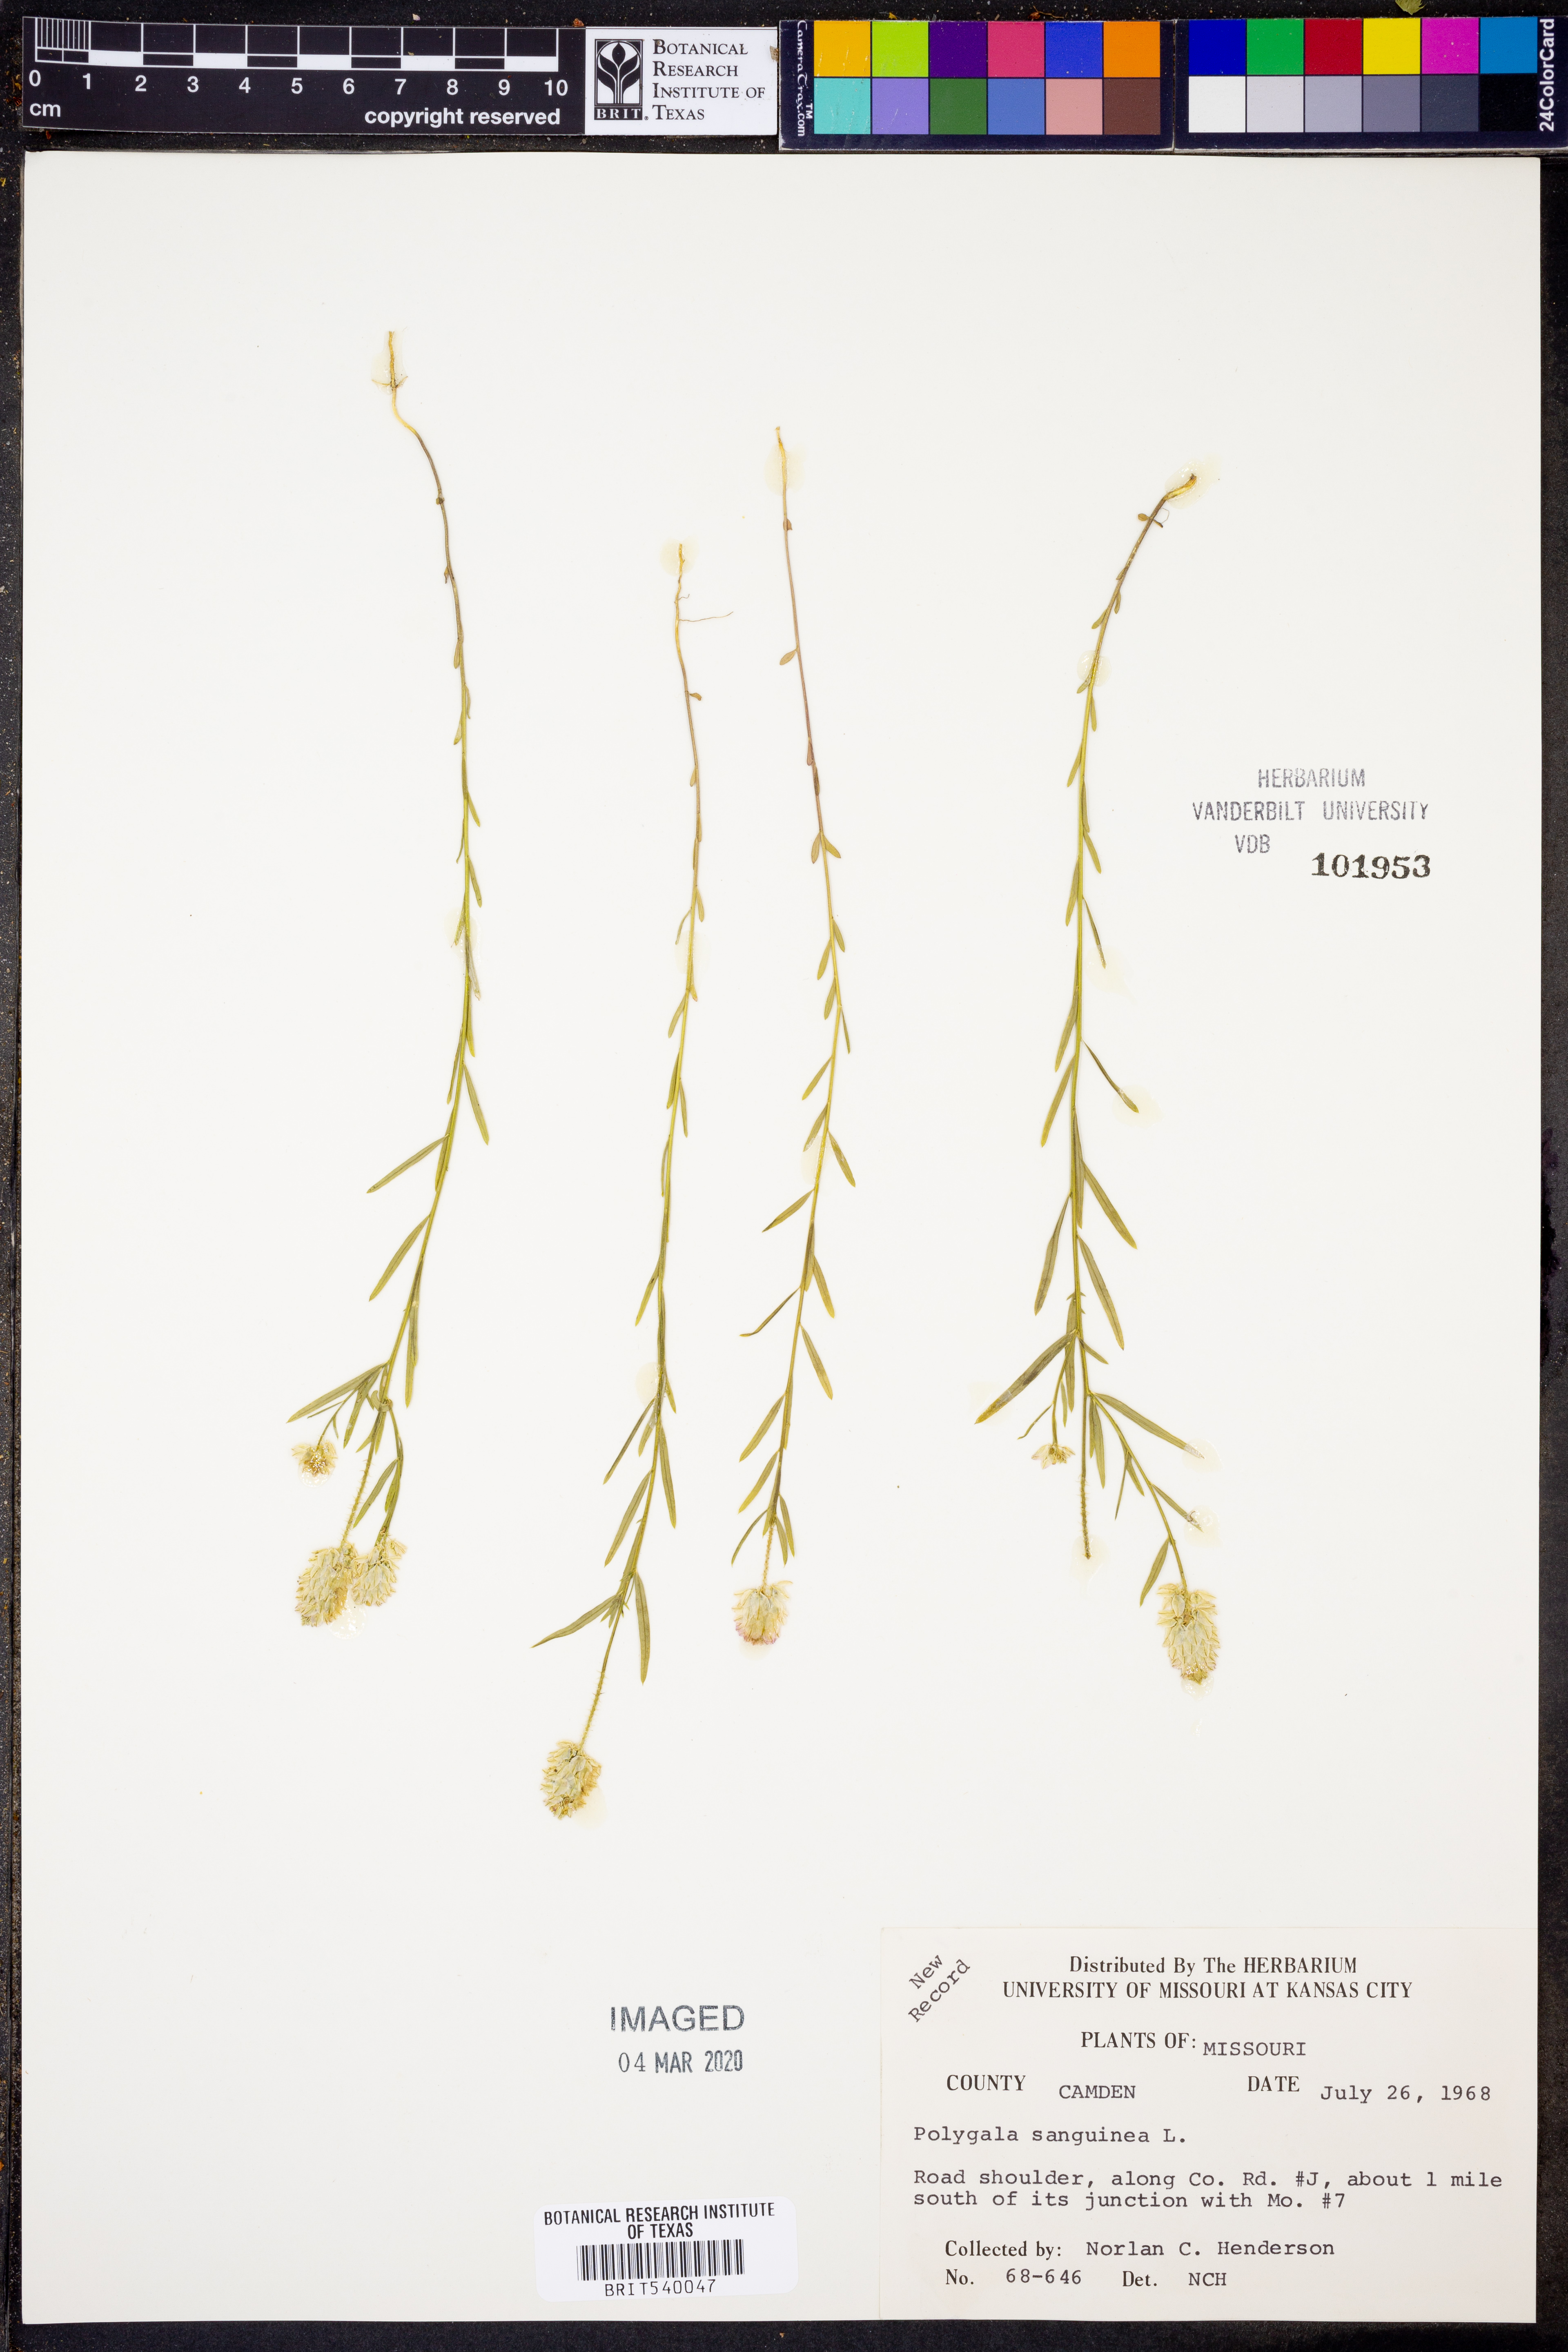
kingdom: Plantae
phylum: Tracheophyta
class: Magnoliopsida
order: Fabales
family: Polygalaceae
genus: Polygala
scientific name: Polygala sanguinea
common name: Blood milkwort
